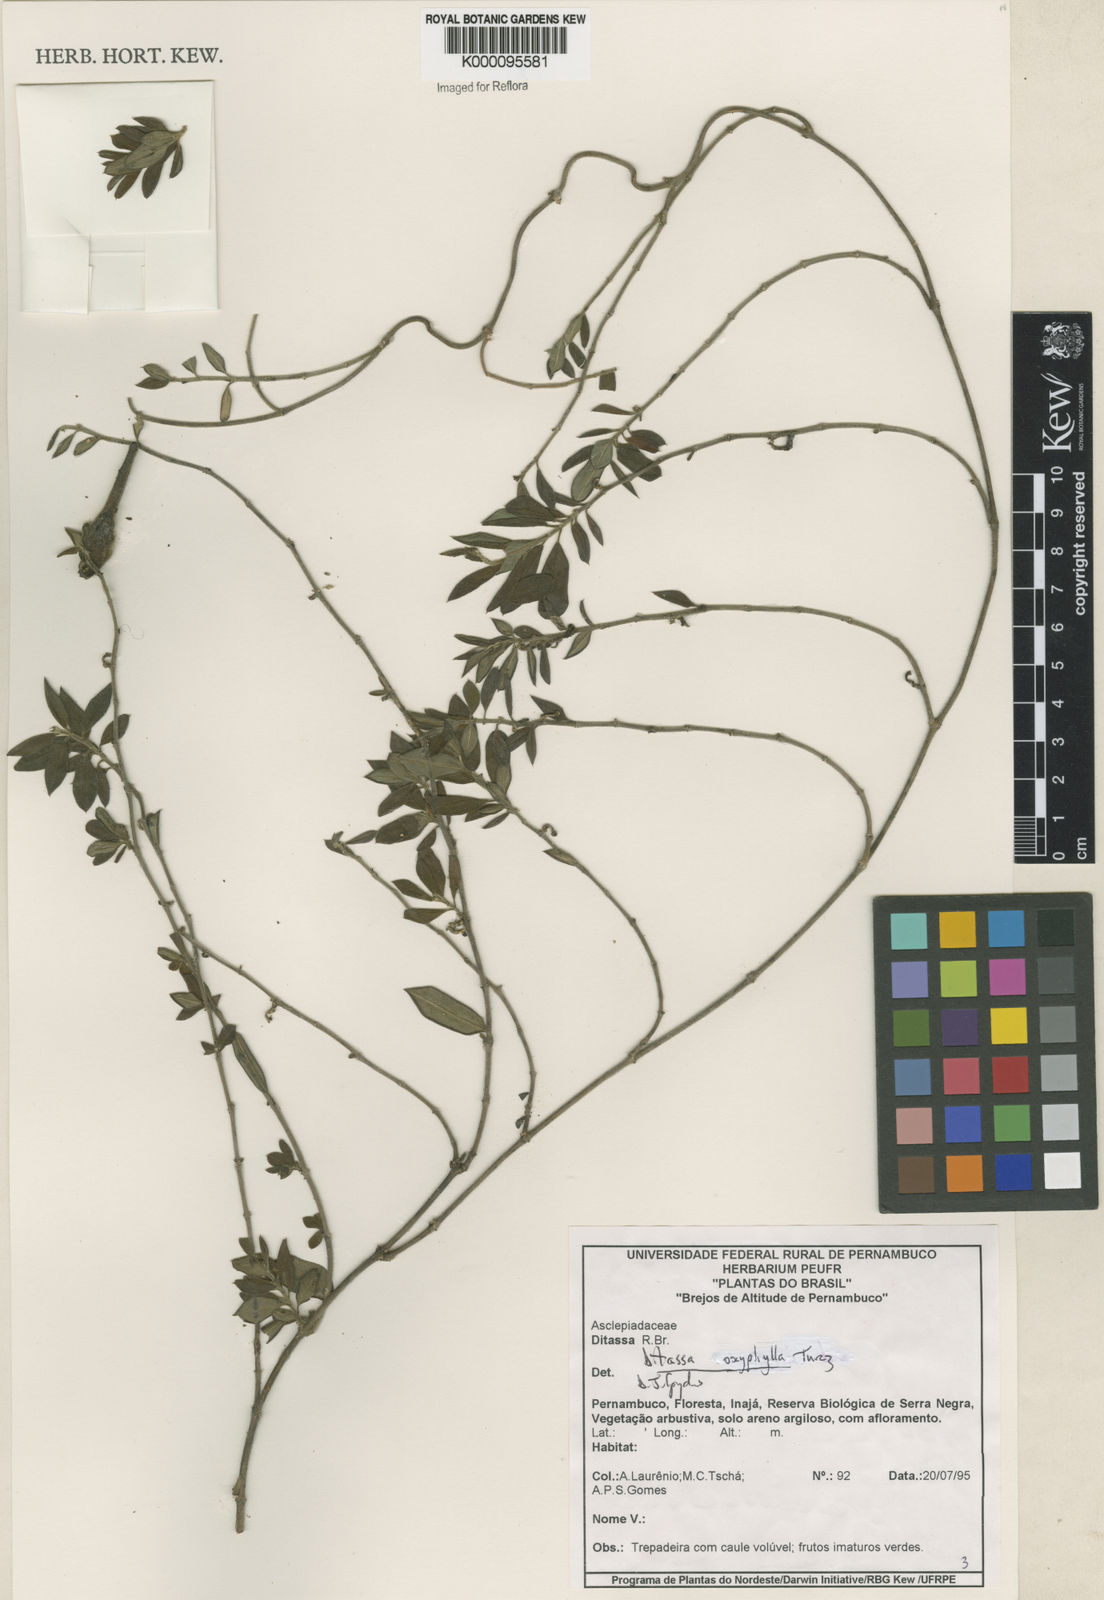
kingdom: Plantae
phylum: Tracheophyta
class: Magnoliopsida
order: Gentianales
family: Apocynaceae
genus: Ditassa
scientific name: Ditassa oxyphylla
